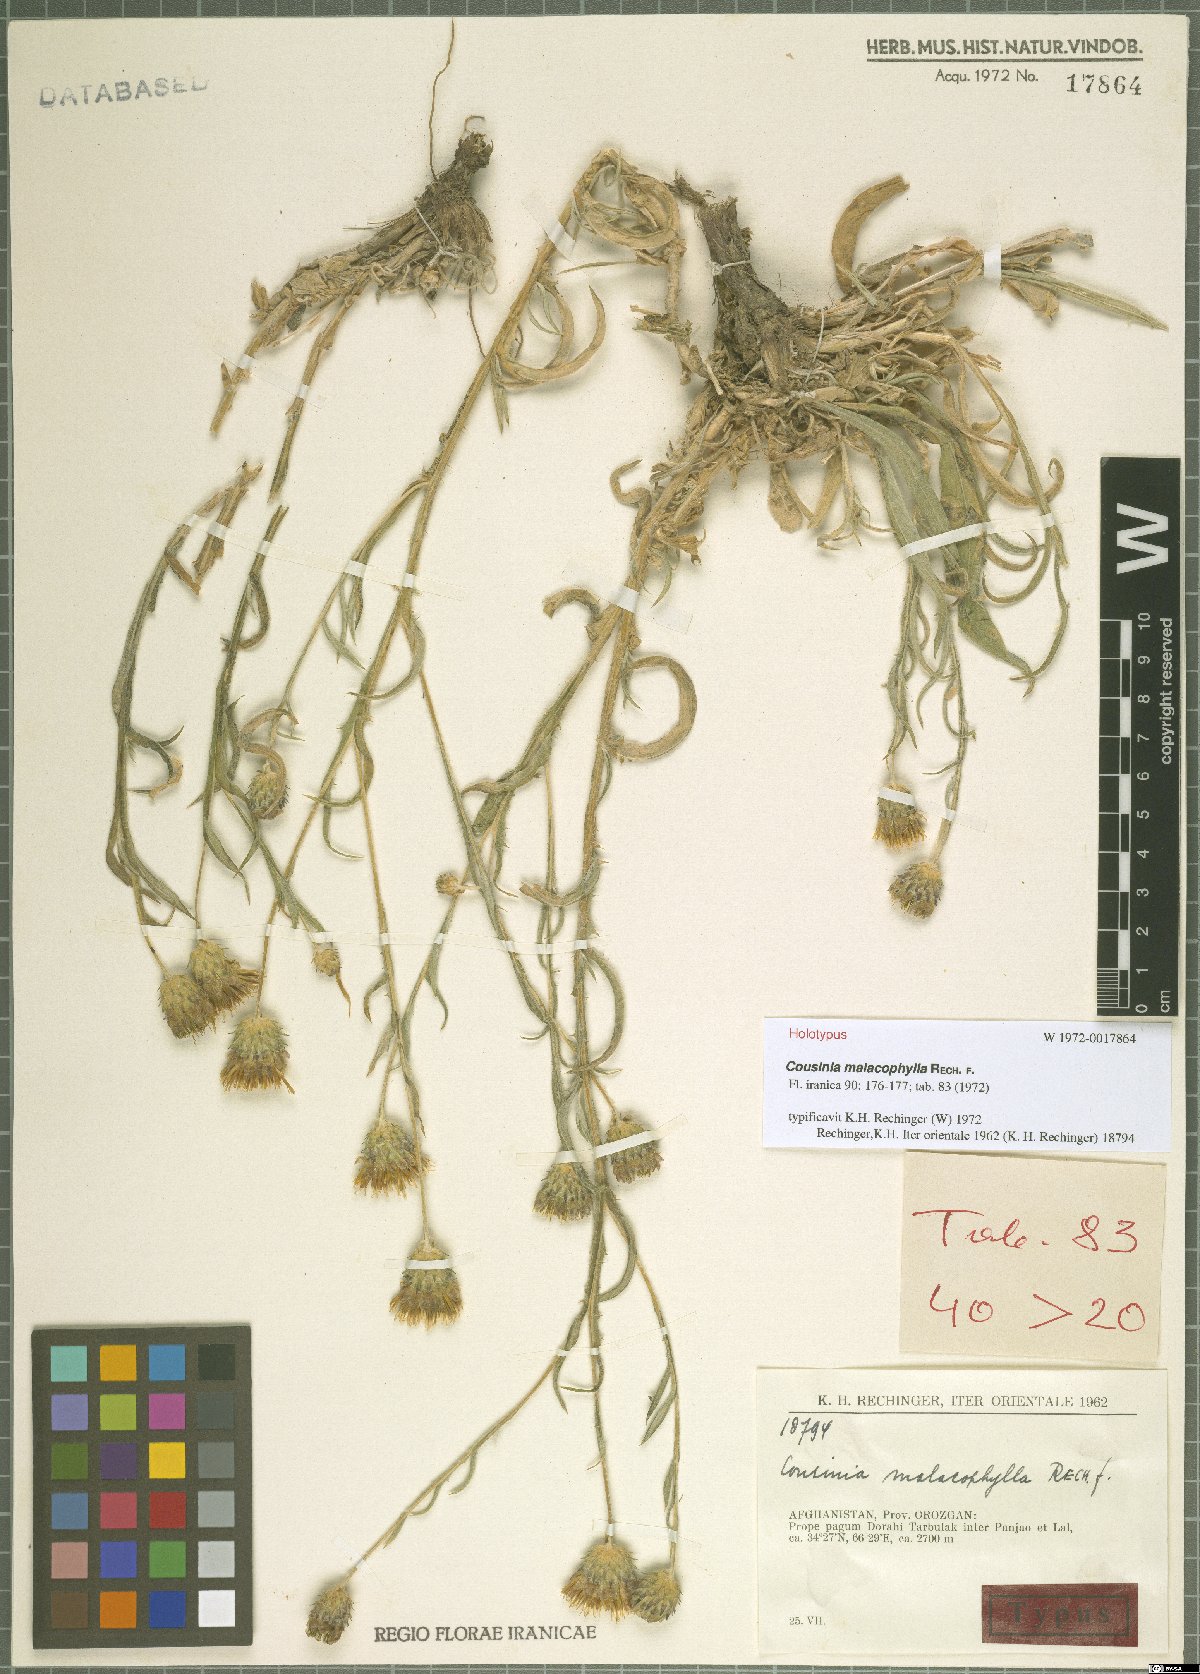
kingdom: Plantae
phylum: Tracheophyta
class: Magnoliopsida
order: Asterales
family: Asteraceae
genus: Cousinia
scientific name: Cousinia malacophylla
